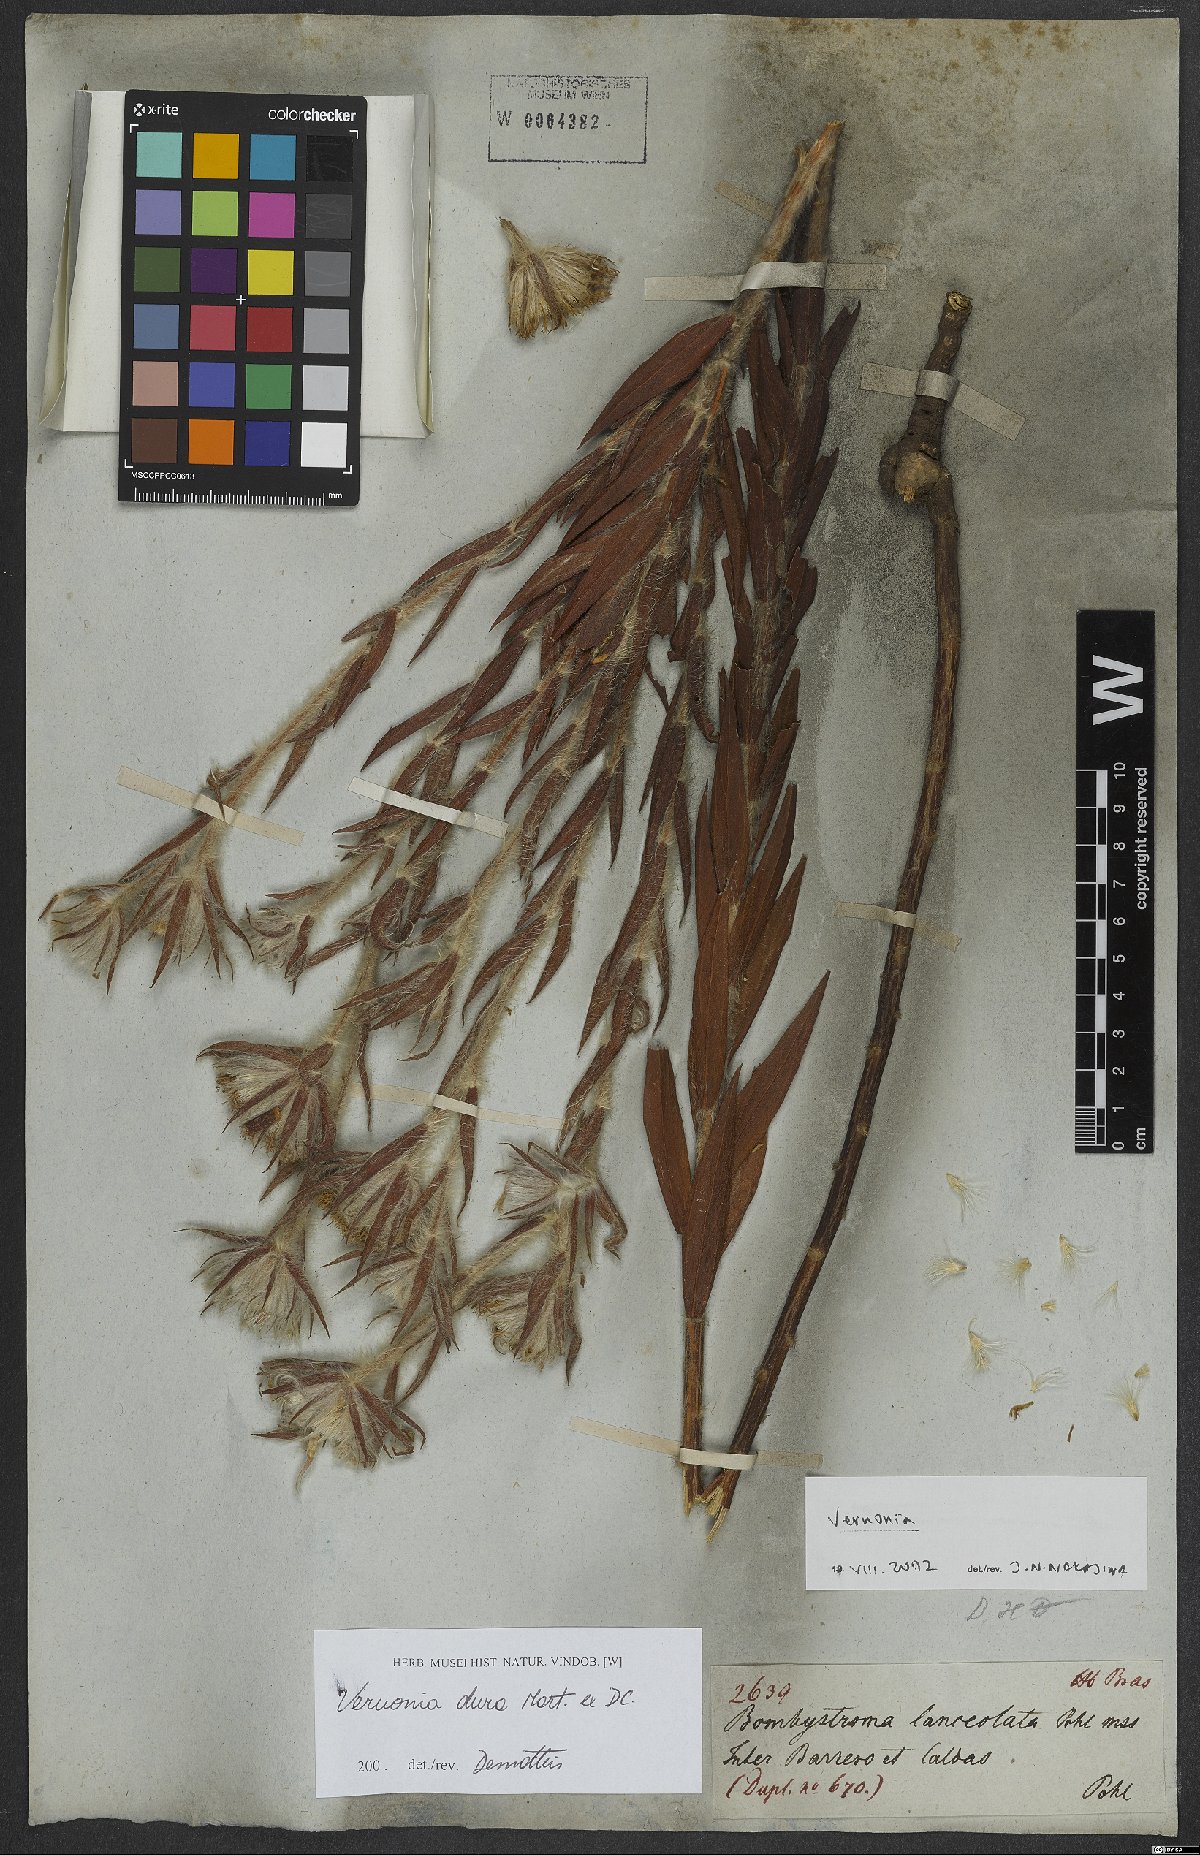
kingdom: Plantae
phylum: Tracheophyta
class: Magnoliopsida
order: Asterales
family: Asteraceae
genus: Lessingianthus
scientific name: Lessingianthus durus
